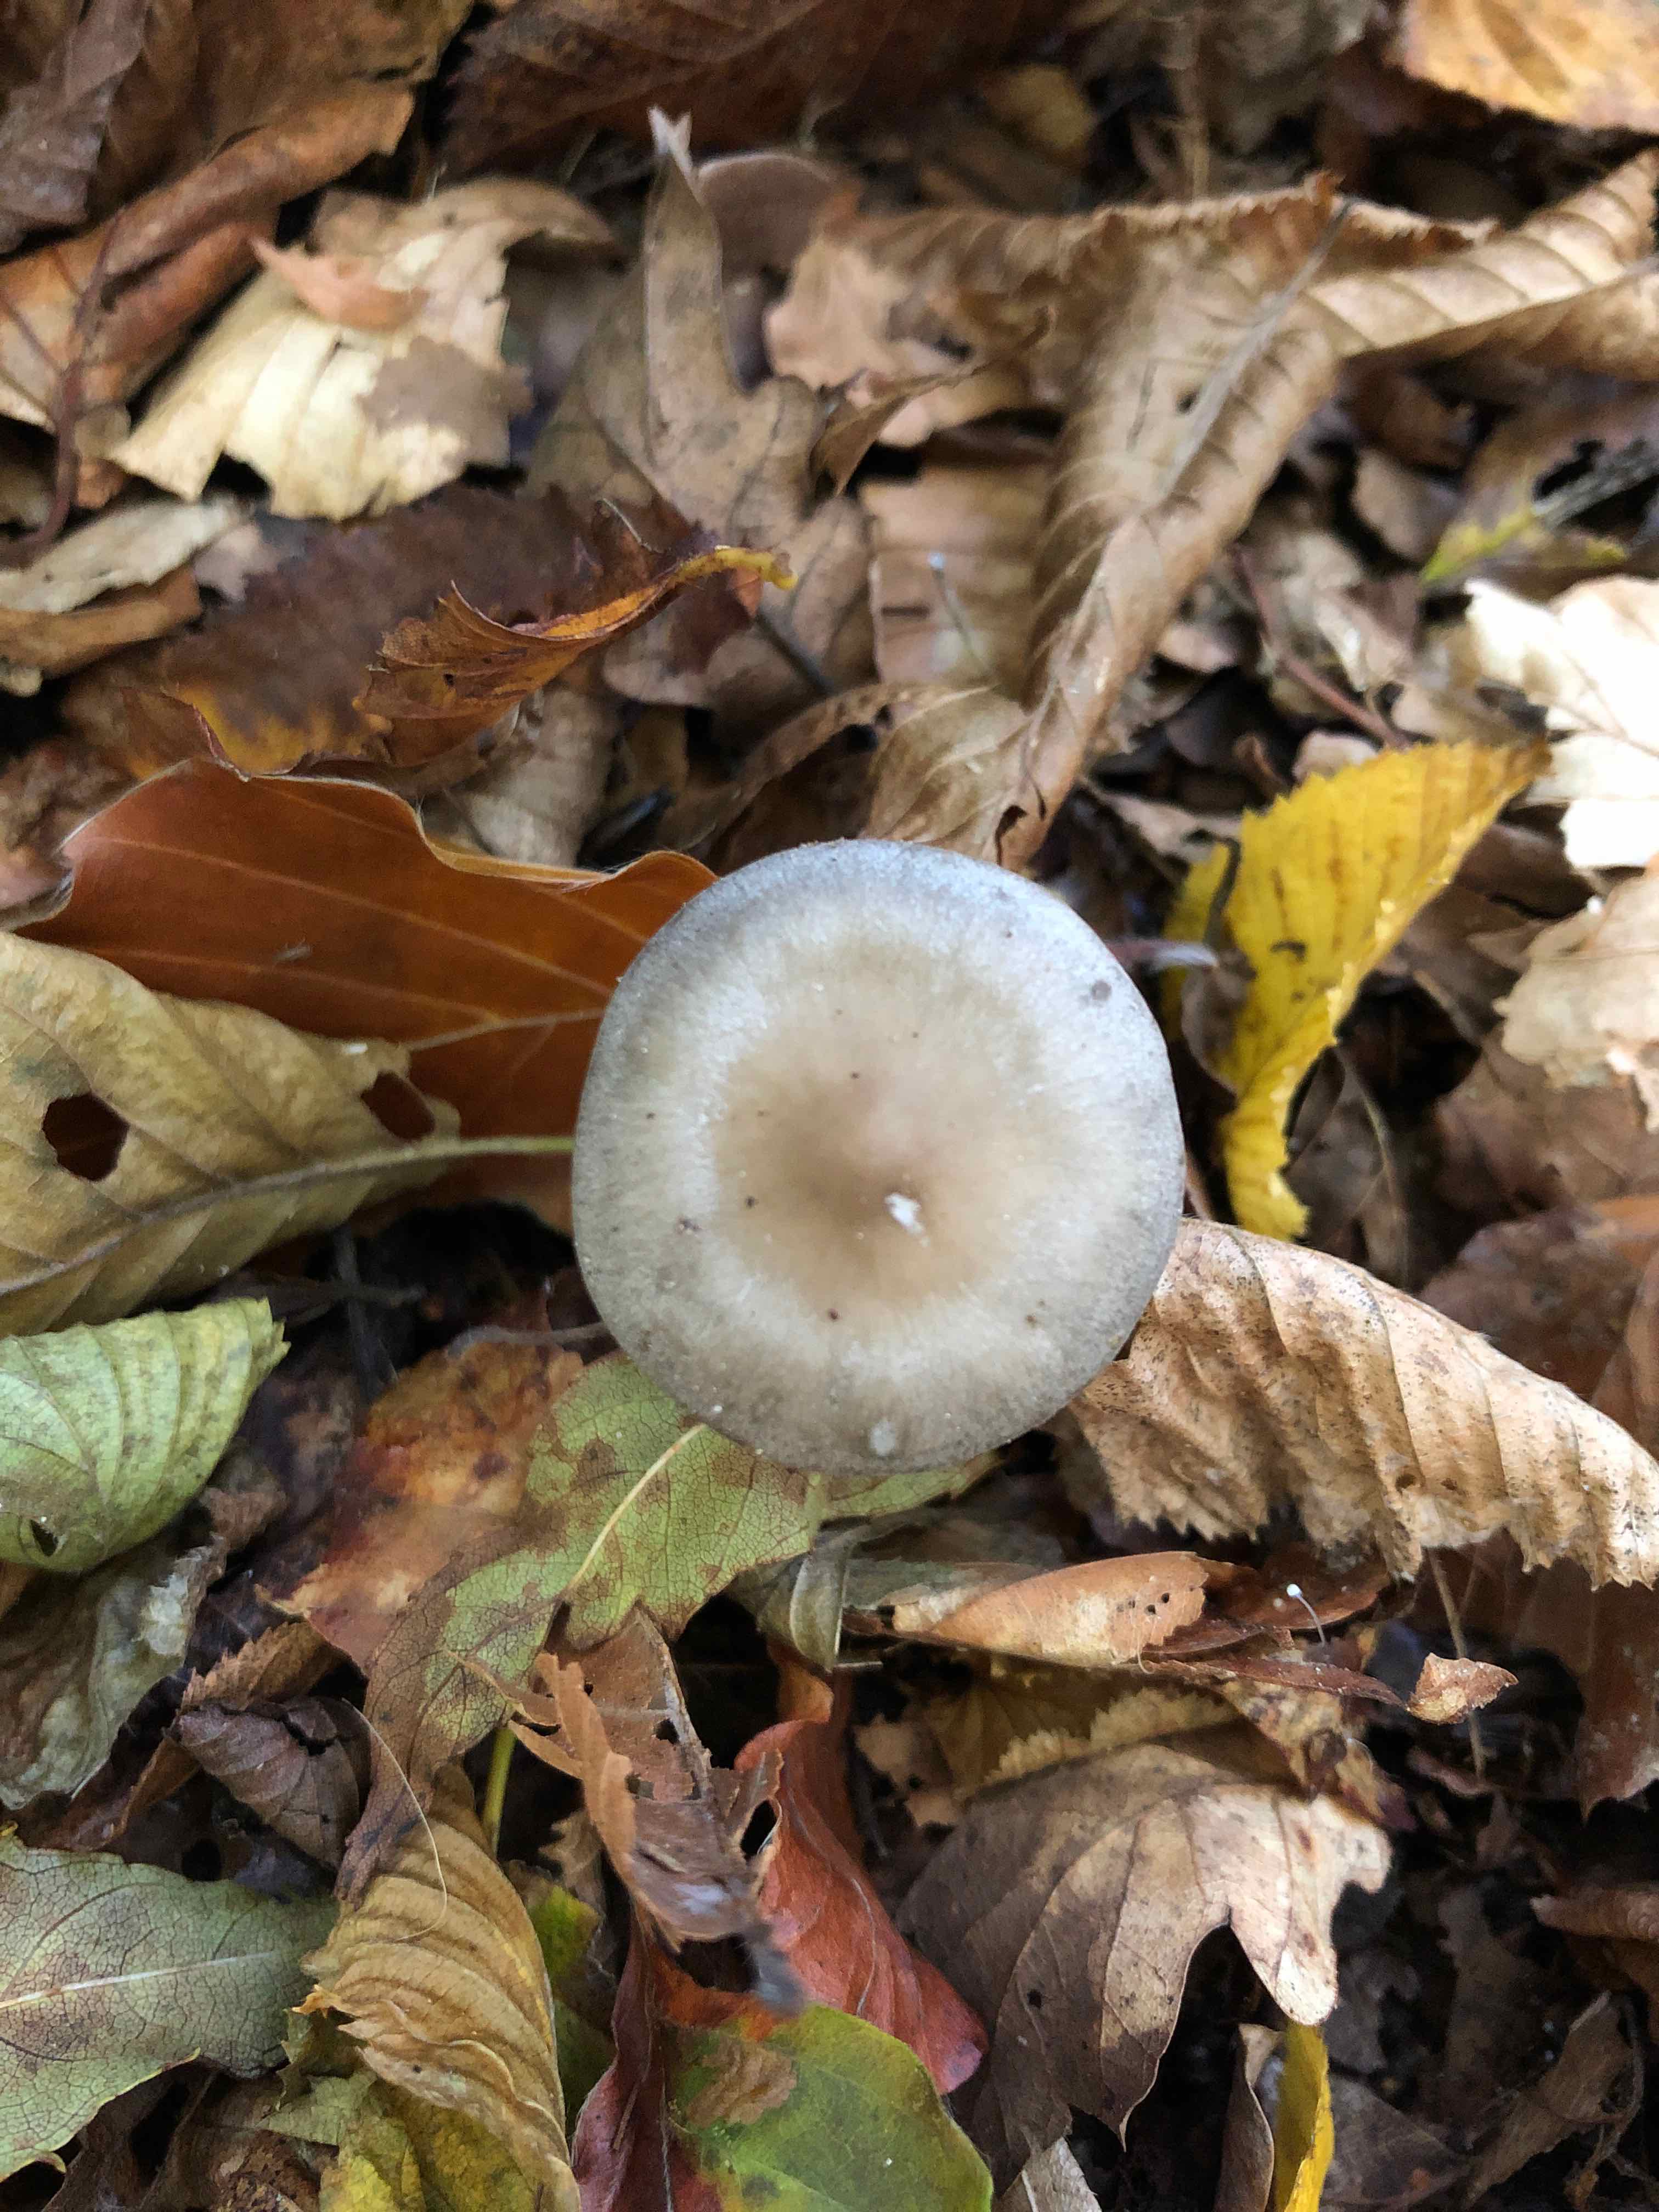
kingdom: Fungi
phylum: Basidiomycota
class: Agaricomycetes
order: Agaricales
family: Lyophyllaceae
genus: Tephrocybe
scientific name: Tephrocybe rancida
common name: mel-gråblad
